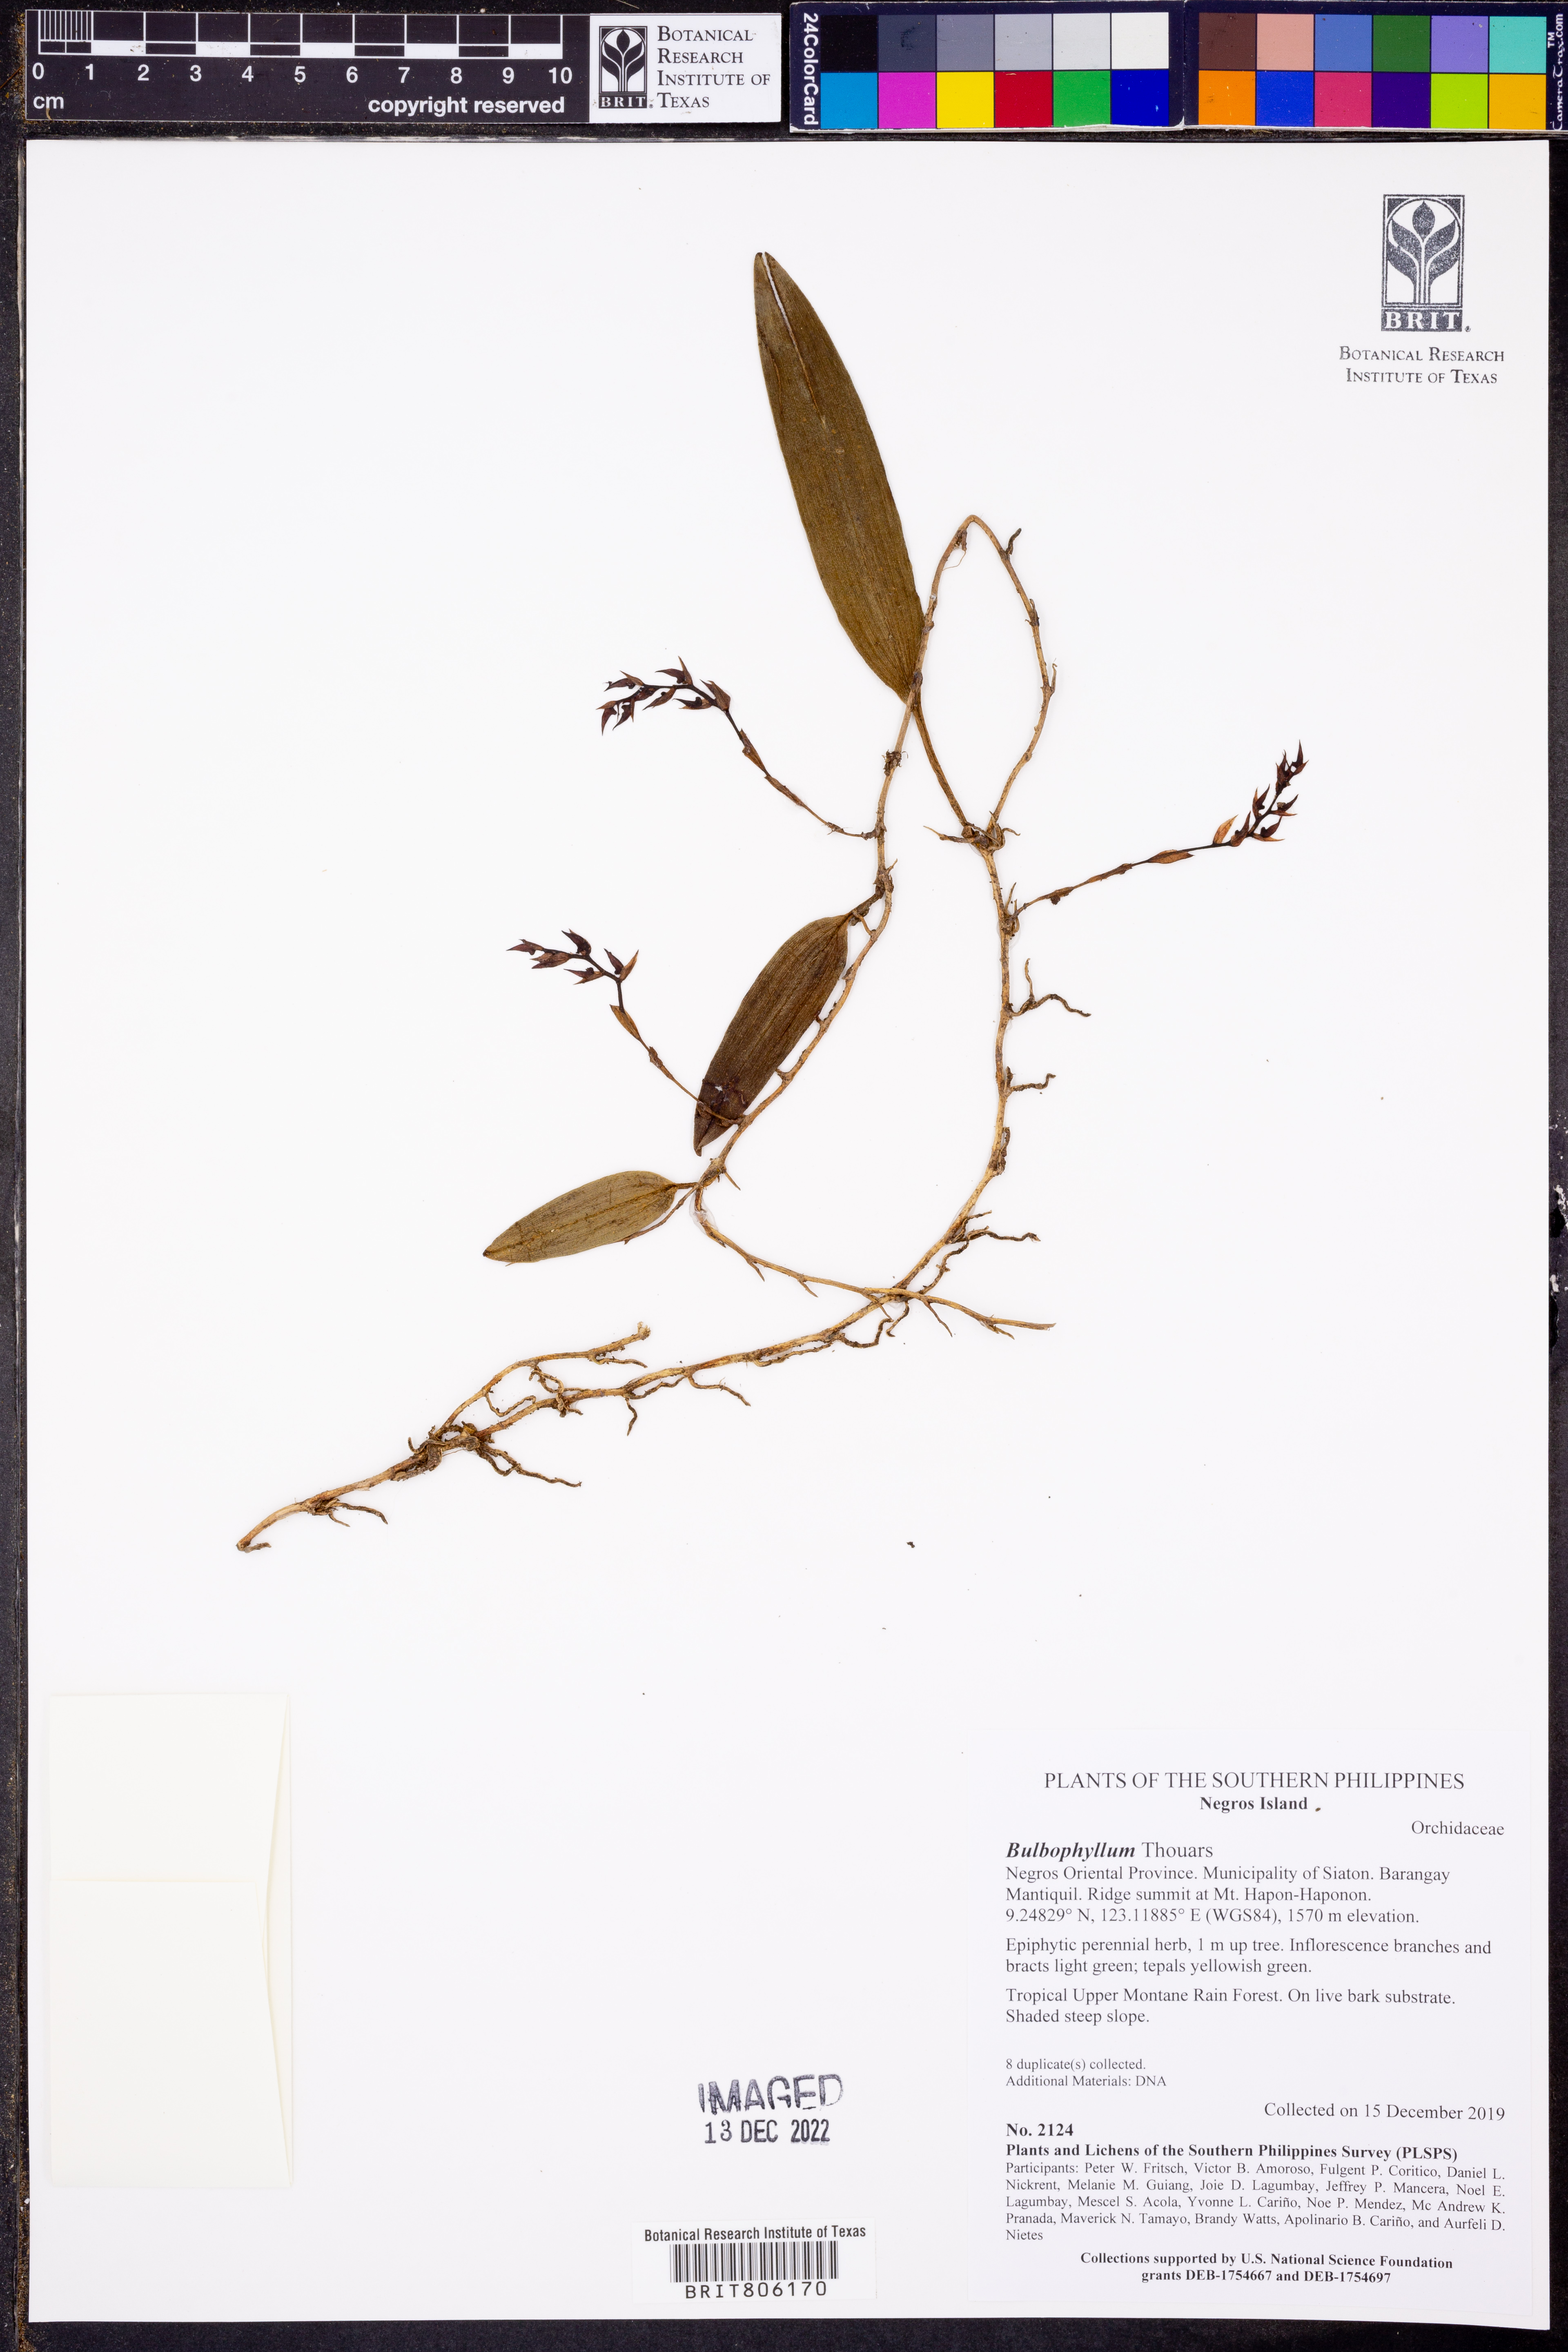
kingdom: Plantae
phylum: Tracheophyta
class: Liliopsida
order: Asparagales
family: Orchidaceae
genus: Bulbophyllum
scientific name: Bulbophyllum
